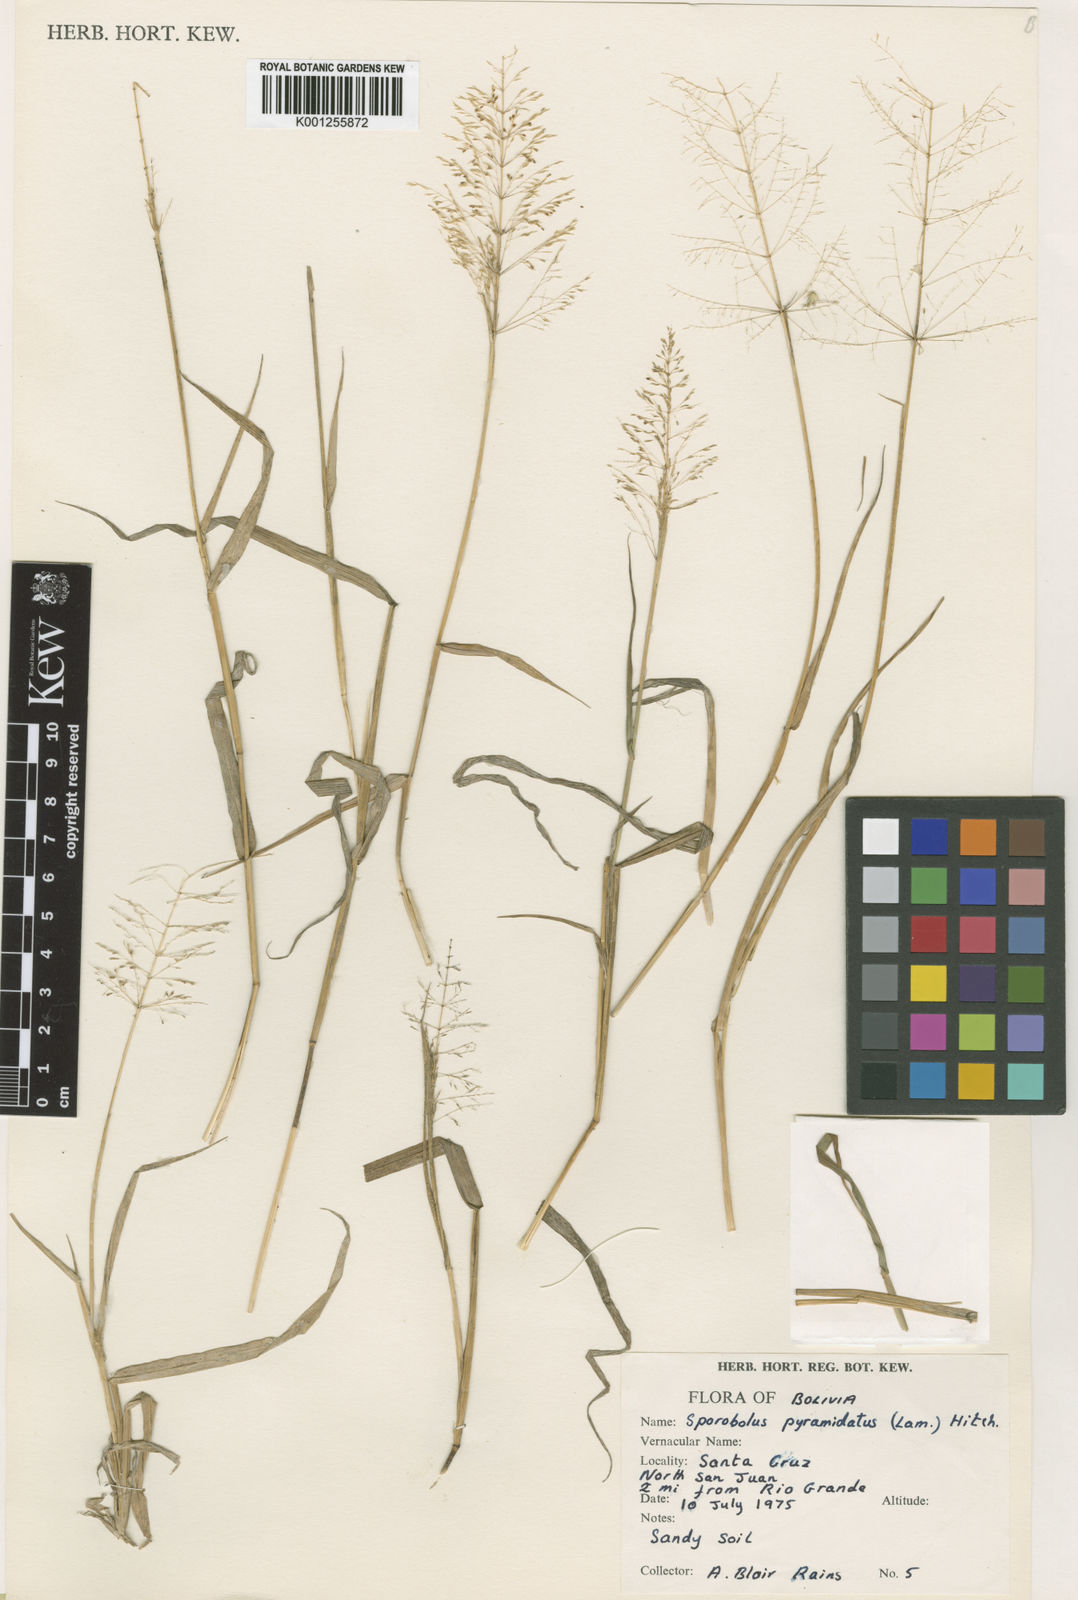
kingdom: Plantae
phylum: Tracheophyta
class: Liliopsida
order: Poales
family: Poaceae
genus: Sporobolus
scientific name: Sporobolus pyramidatus
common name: Whorled dropseed
